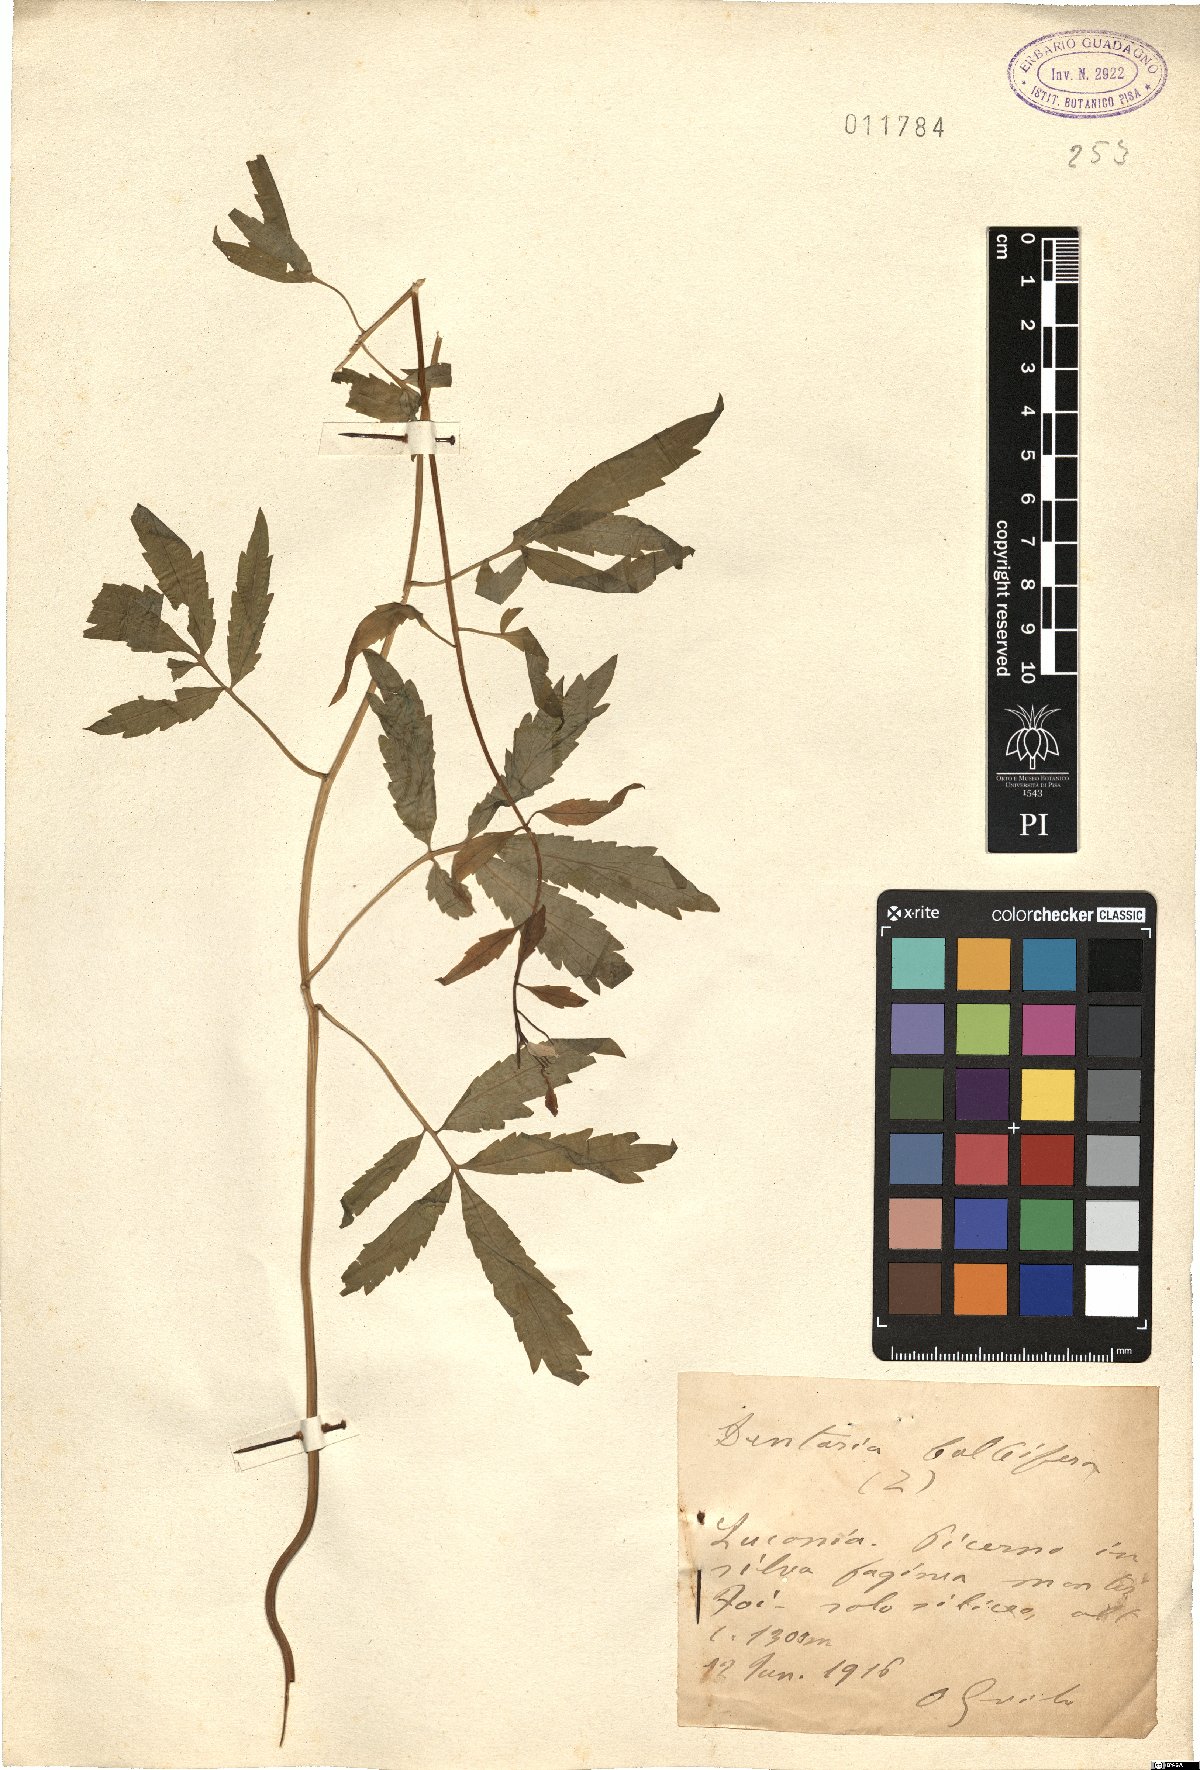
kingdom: Plantae
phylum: Tracheophyta
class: Magnoliopsida
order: Brassicales
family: Brassicaceae
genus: Cardamine
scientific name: Cardamine bulbifera
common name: Coralroot bittercress
